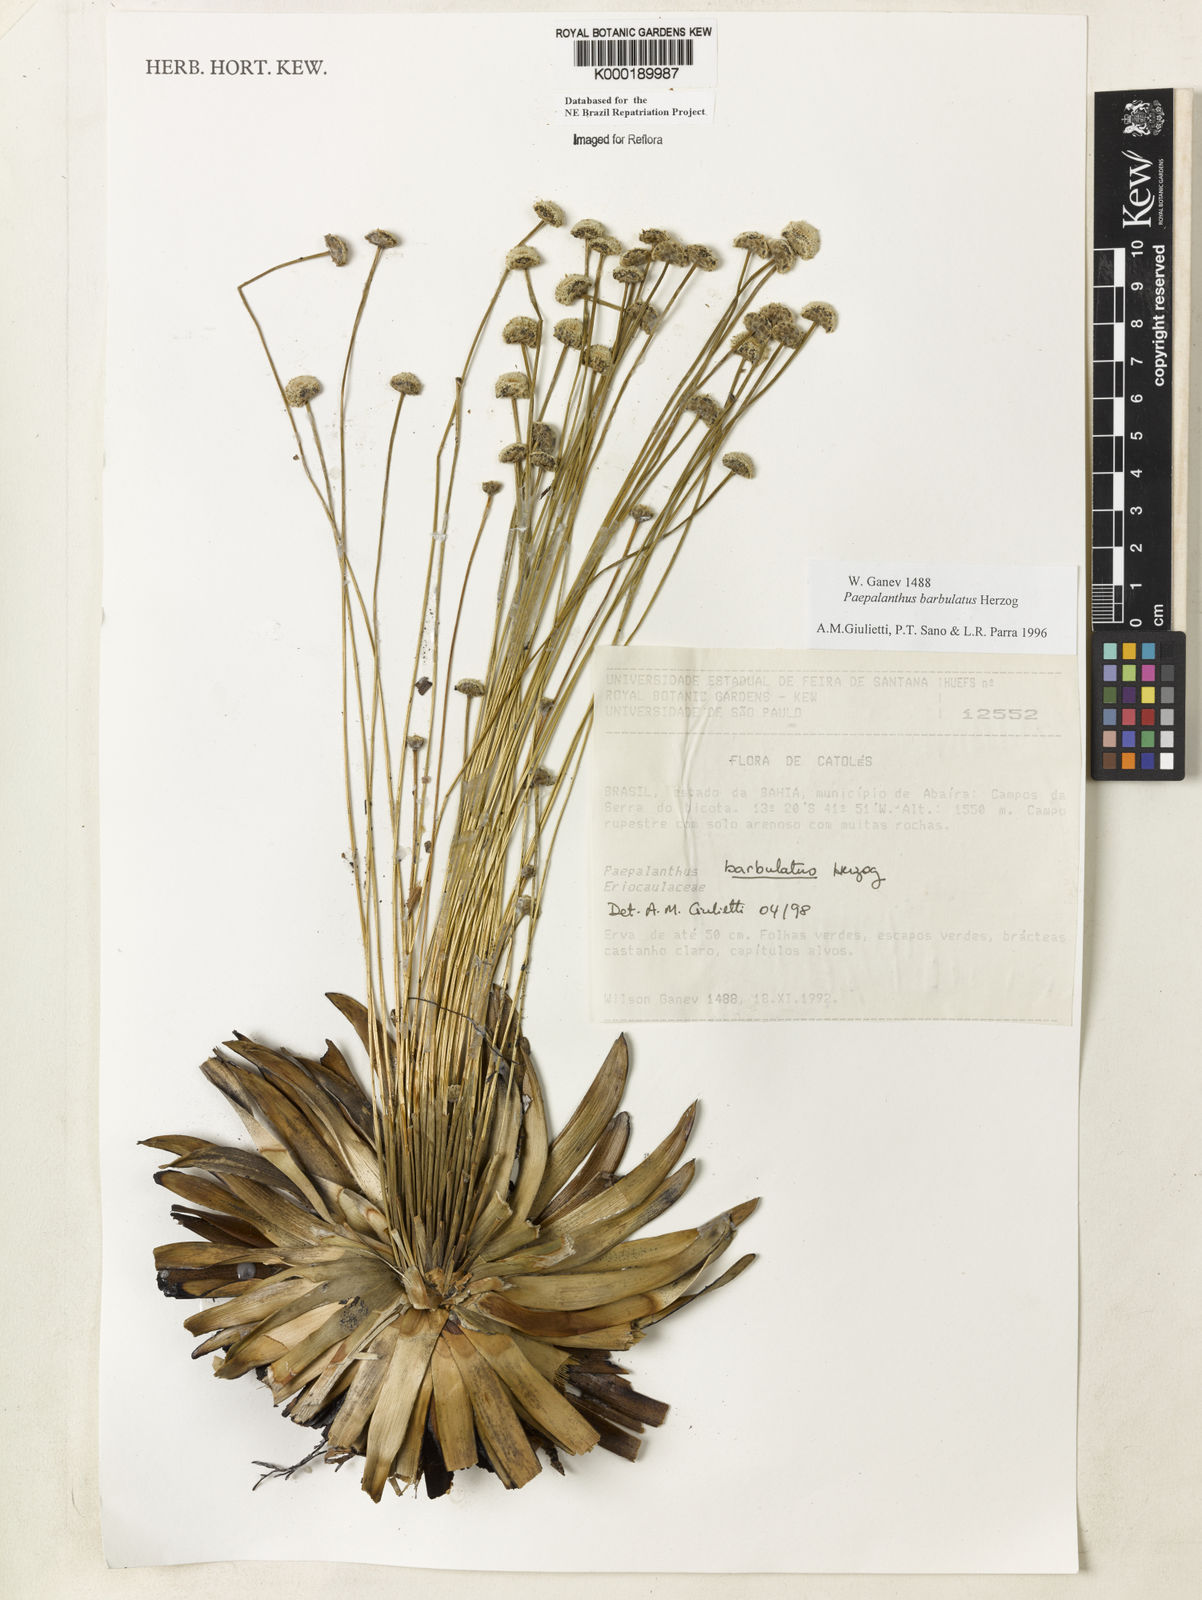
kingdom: Plantae
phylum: Tracheophyta
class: Liliopsida
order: Poales
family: Eriocaulaceae
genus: Paepalanthus
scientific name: Paepalanthus barbulatus
